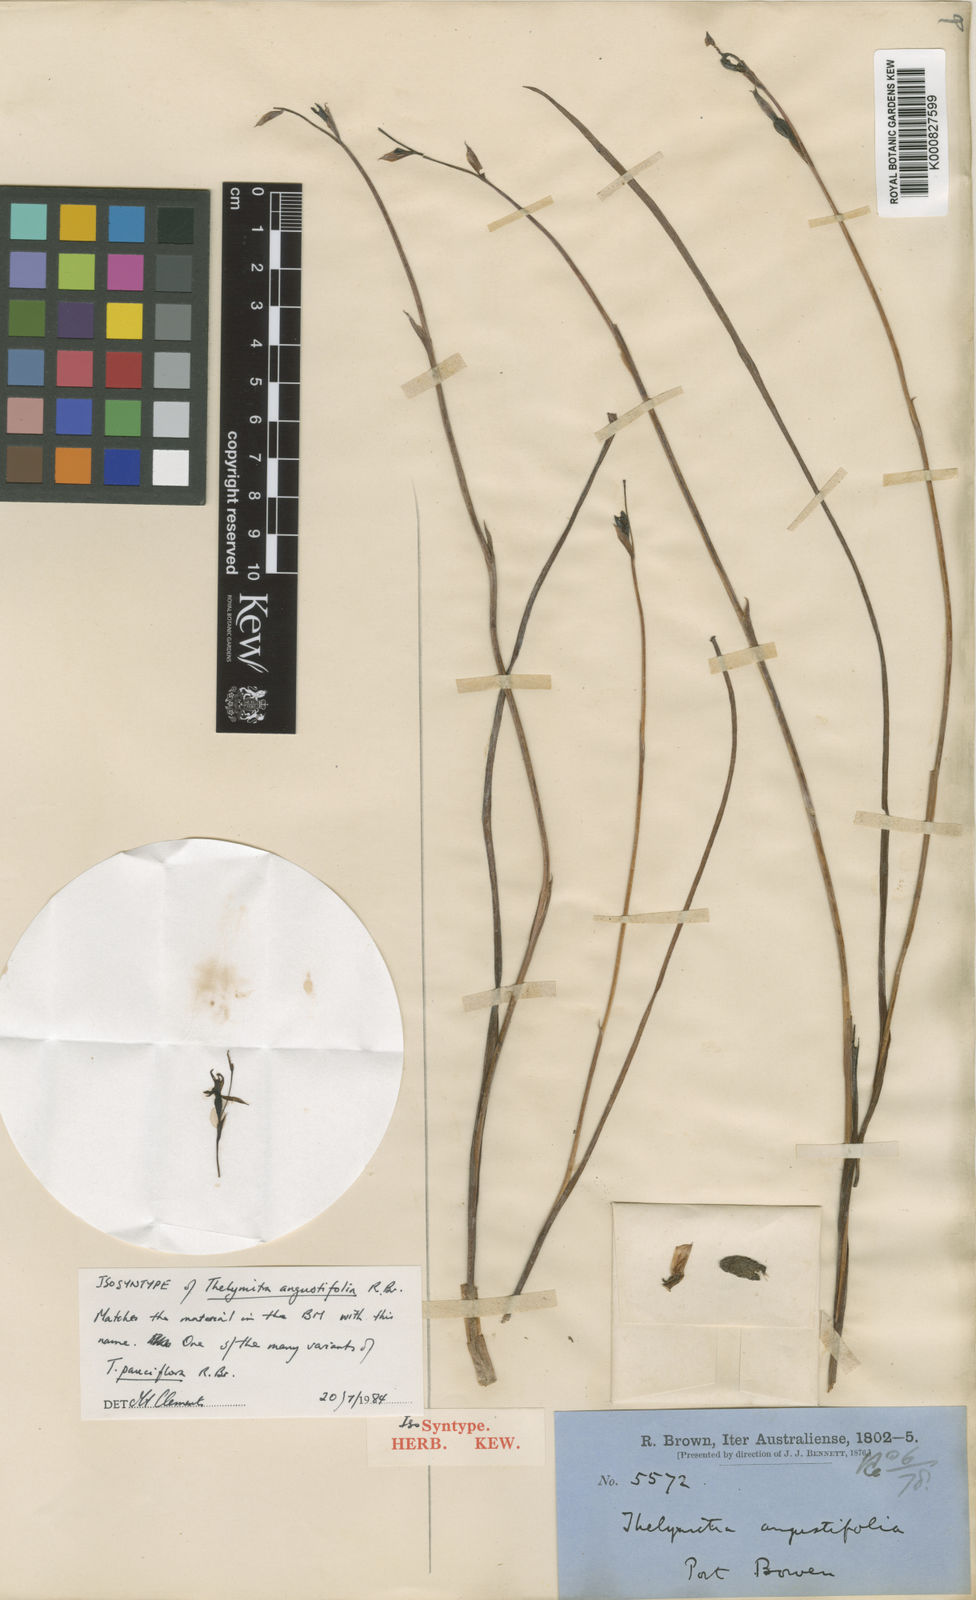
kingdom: Plantae
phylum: Tracheophyta
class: Liliopsida
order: Asparagales
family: Orchidaceae
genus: Thelymitra
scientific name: Thelymitra angustifolia
